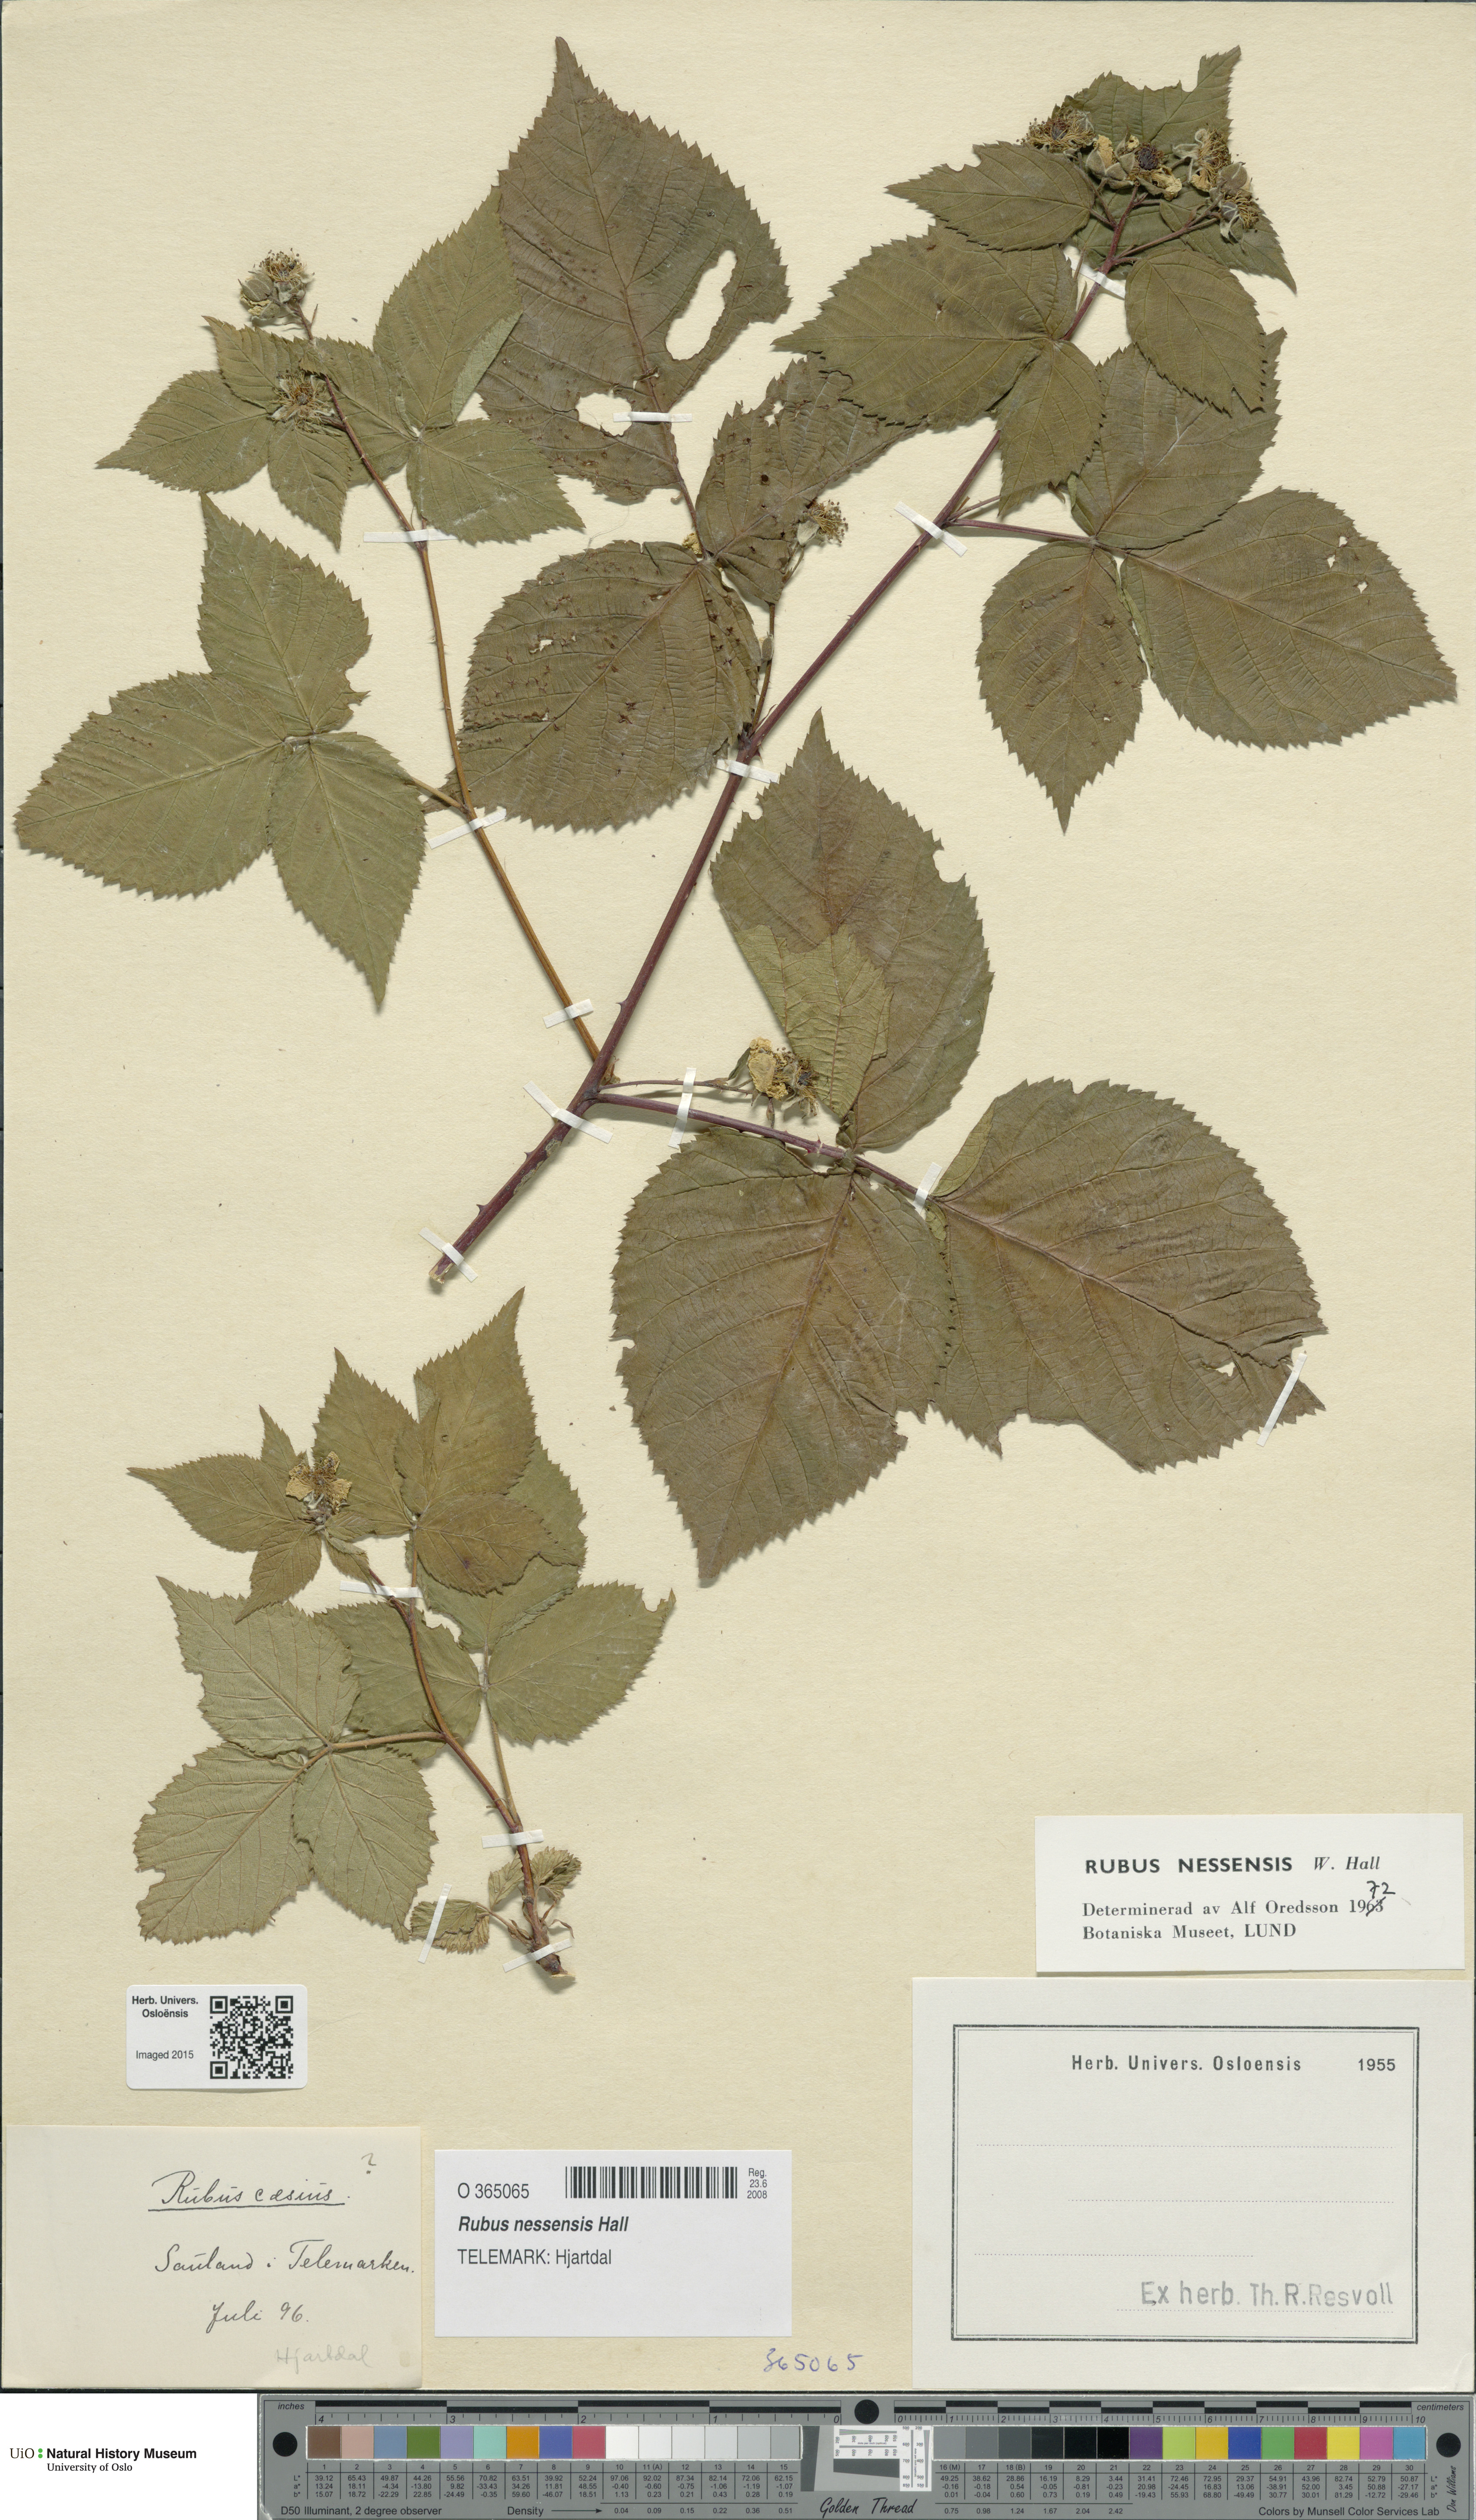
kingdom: Plantae
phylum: Tracheophyta
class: Magnoliopsida
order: Rosales
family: Rosaceae
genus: Rubus
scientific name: Rubus polonicus
